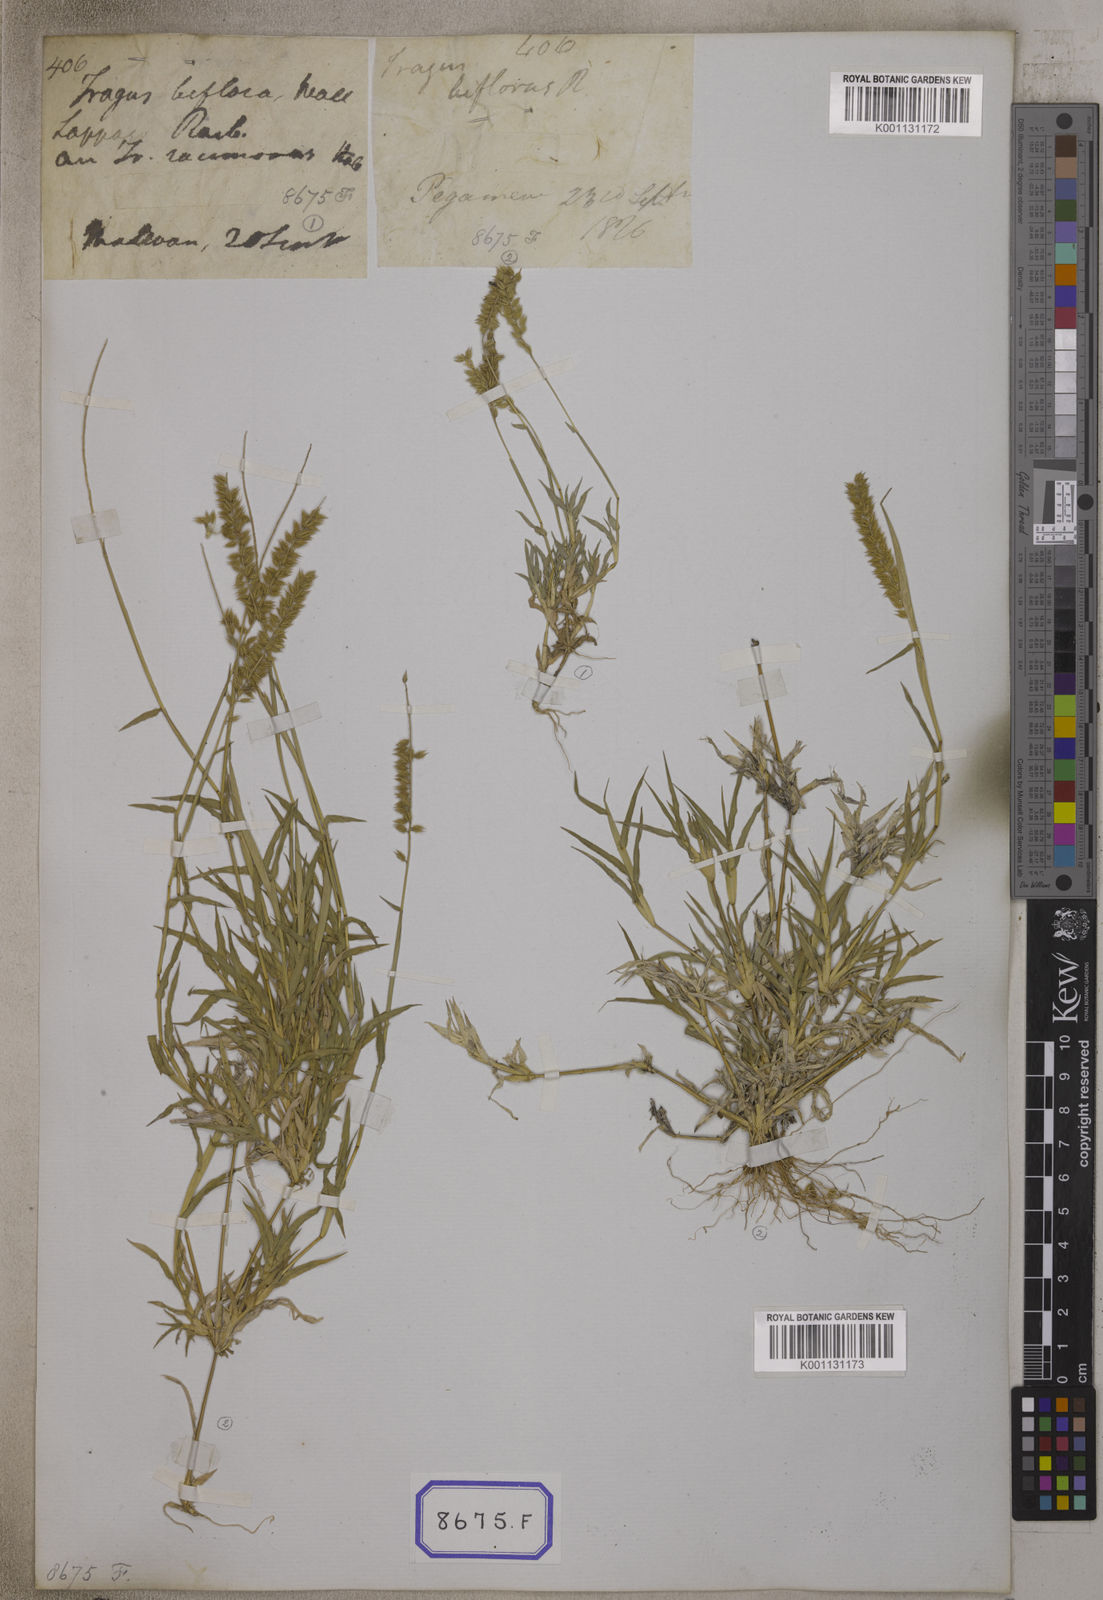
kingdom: Plantae
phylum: Tracheophyta
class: Liliopsida
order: Poales
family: Poaceae
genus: Tragus
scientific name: Tragus racemosus
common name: European bur-grass
